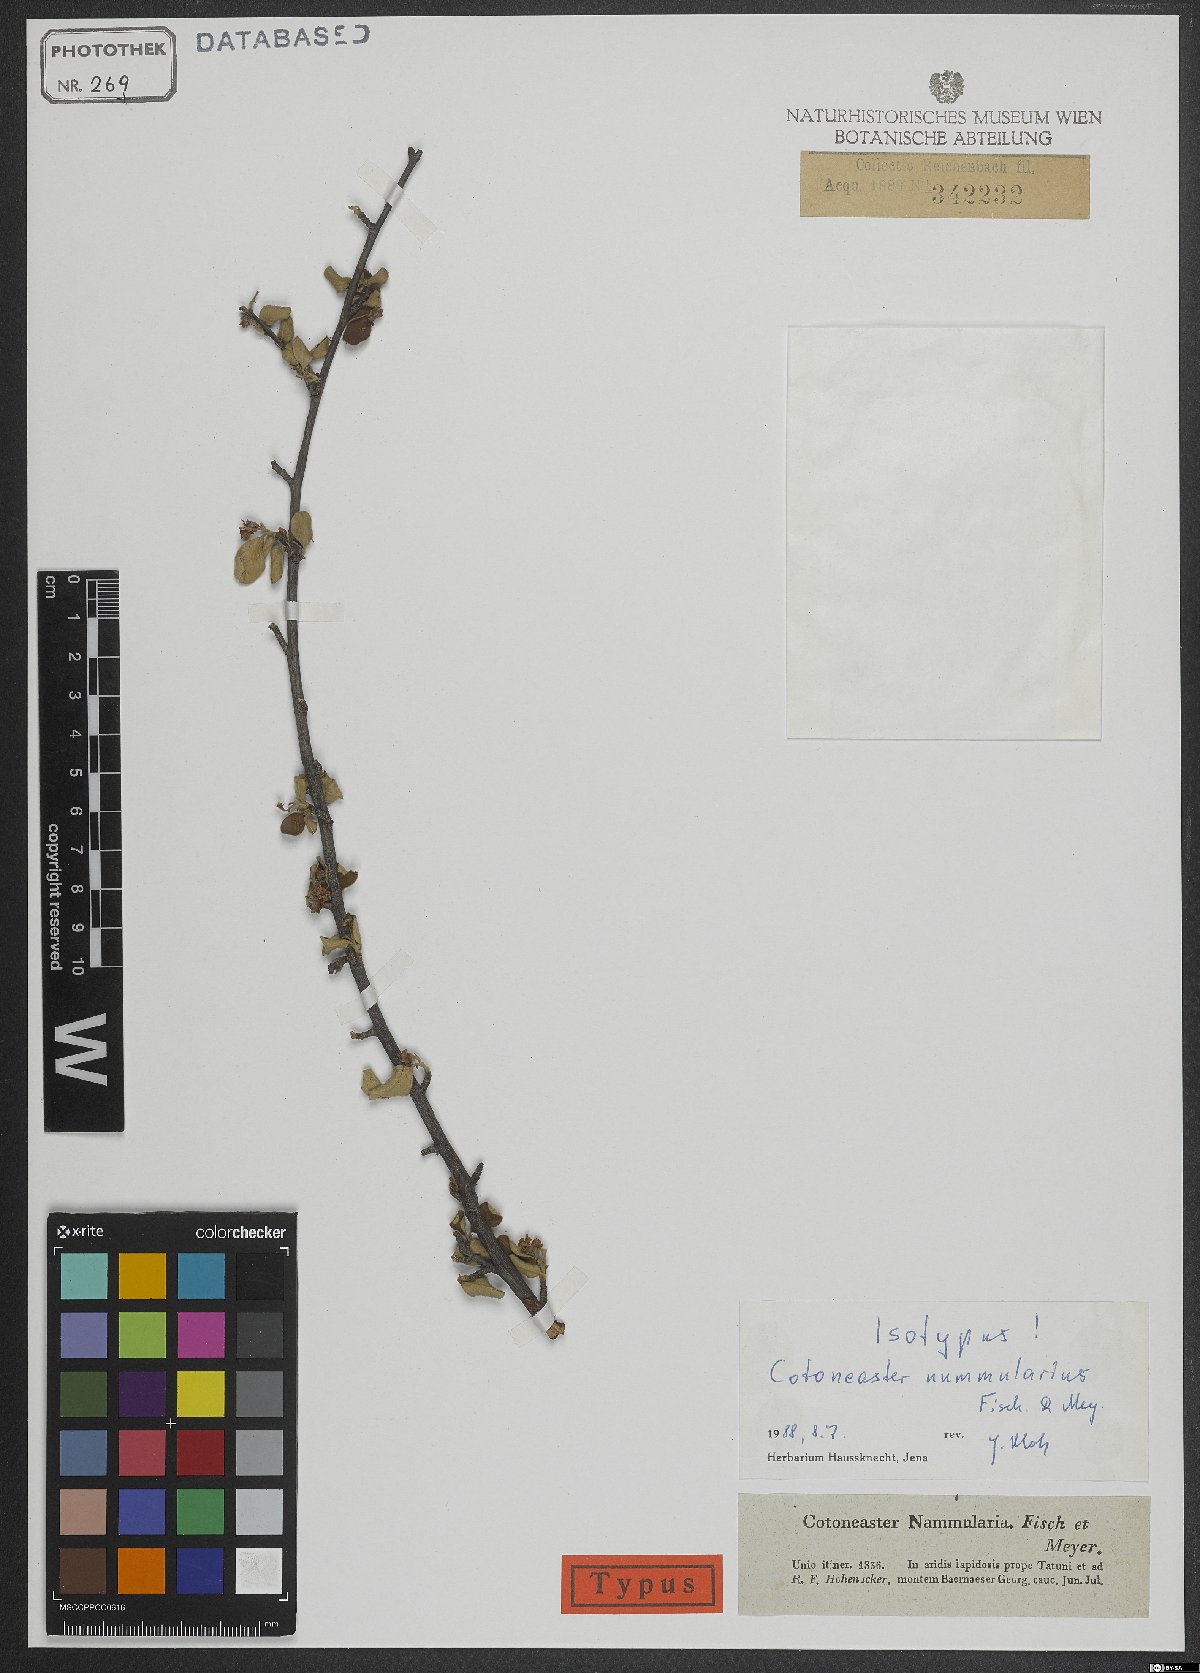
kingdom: Plantae
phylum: Tracheophyta
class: Magnoliopsida
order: Rosales
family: Rosaceae
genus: Cotoneaster
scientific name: Cotoneaster nummularius
